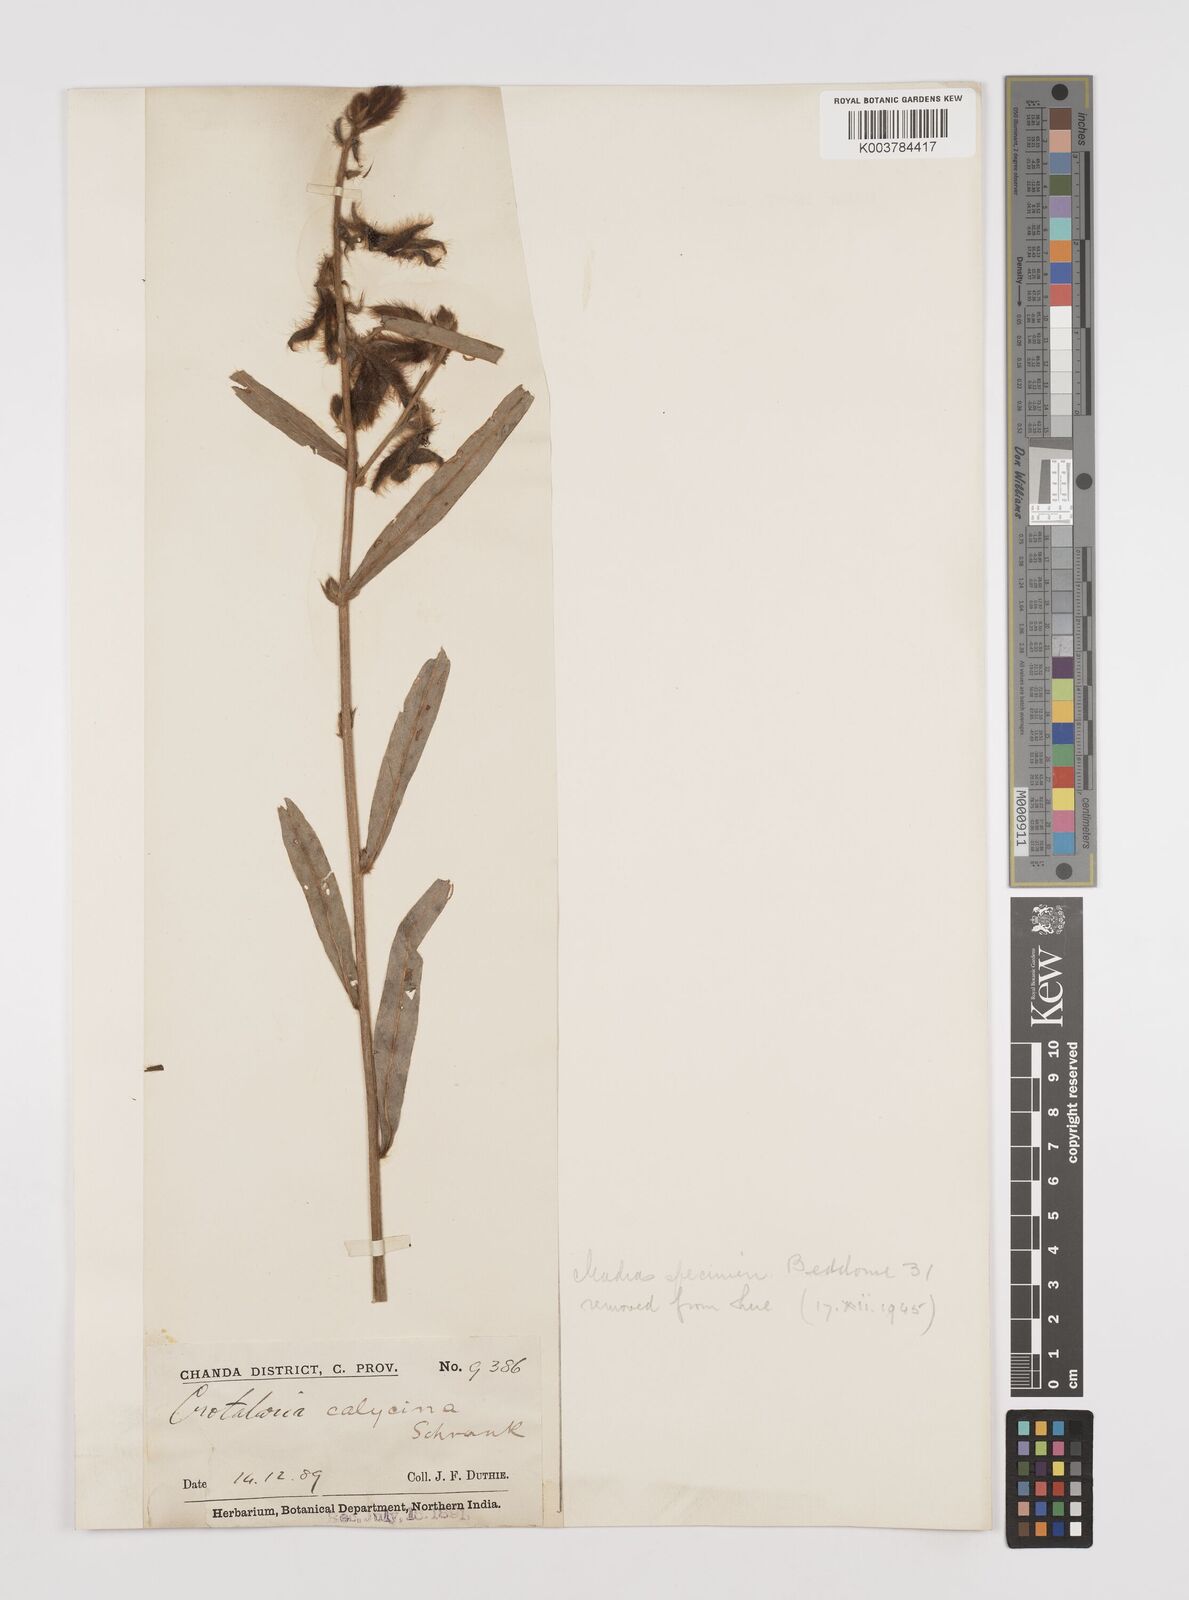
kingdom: Plantae
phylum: Tracheophyta
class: Magnoliopsida
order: Fabales
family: Fabaceae
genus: Crotalaria
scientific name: Crotalaria calycina
